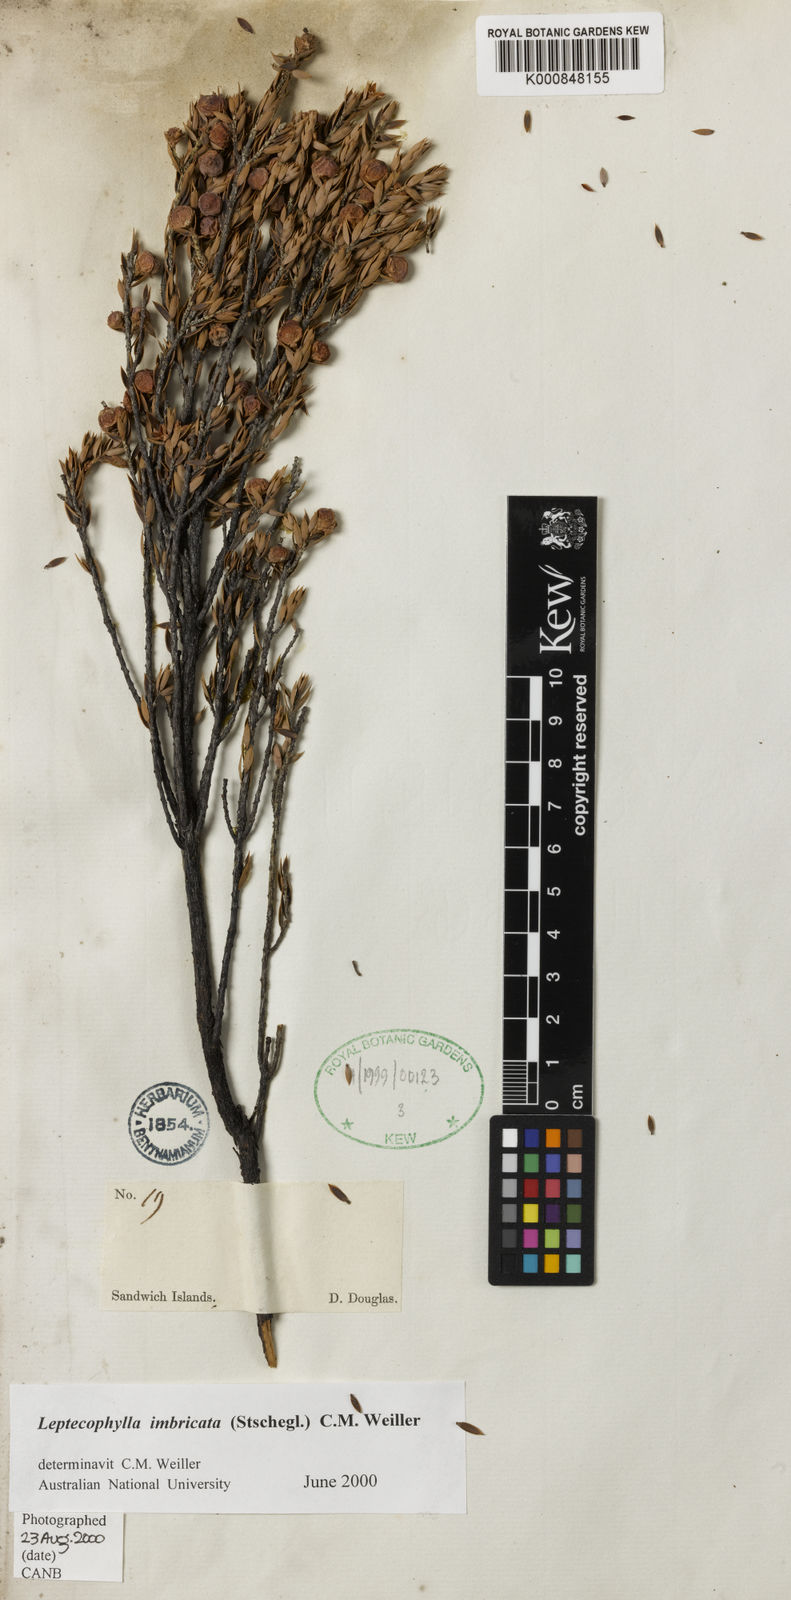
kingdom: Plantae
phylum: Tracheophyta
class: Magnoliopsida
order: Ericales
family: Ericaceae
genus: Leptecophylla
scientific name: Leptecophylla tameiameiae
